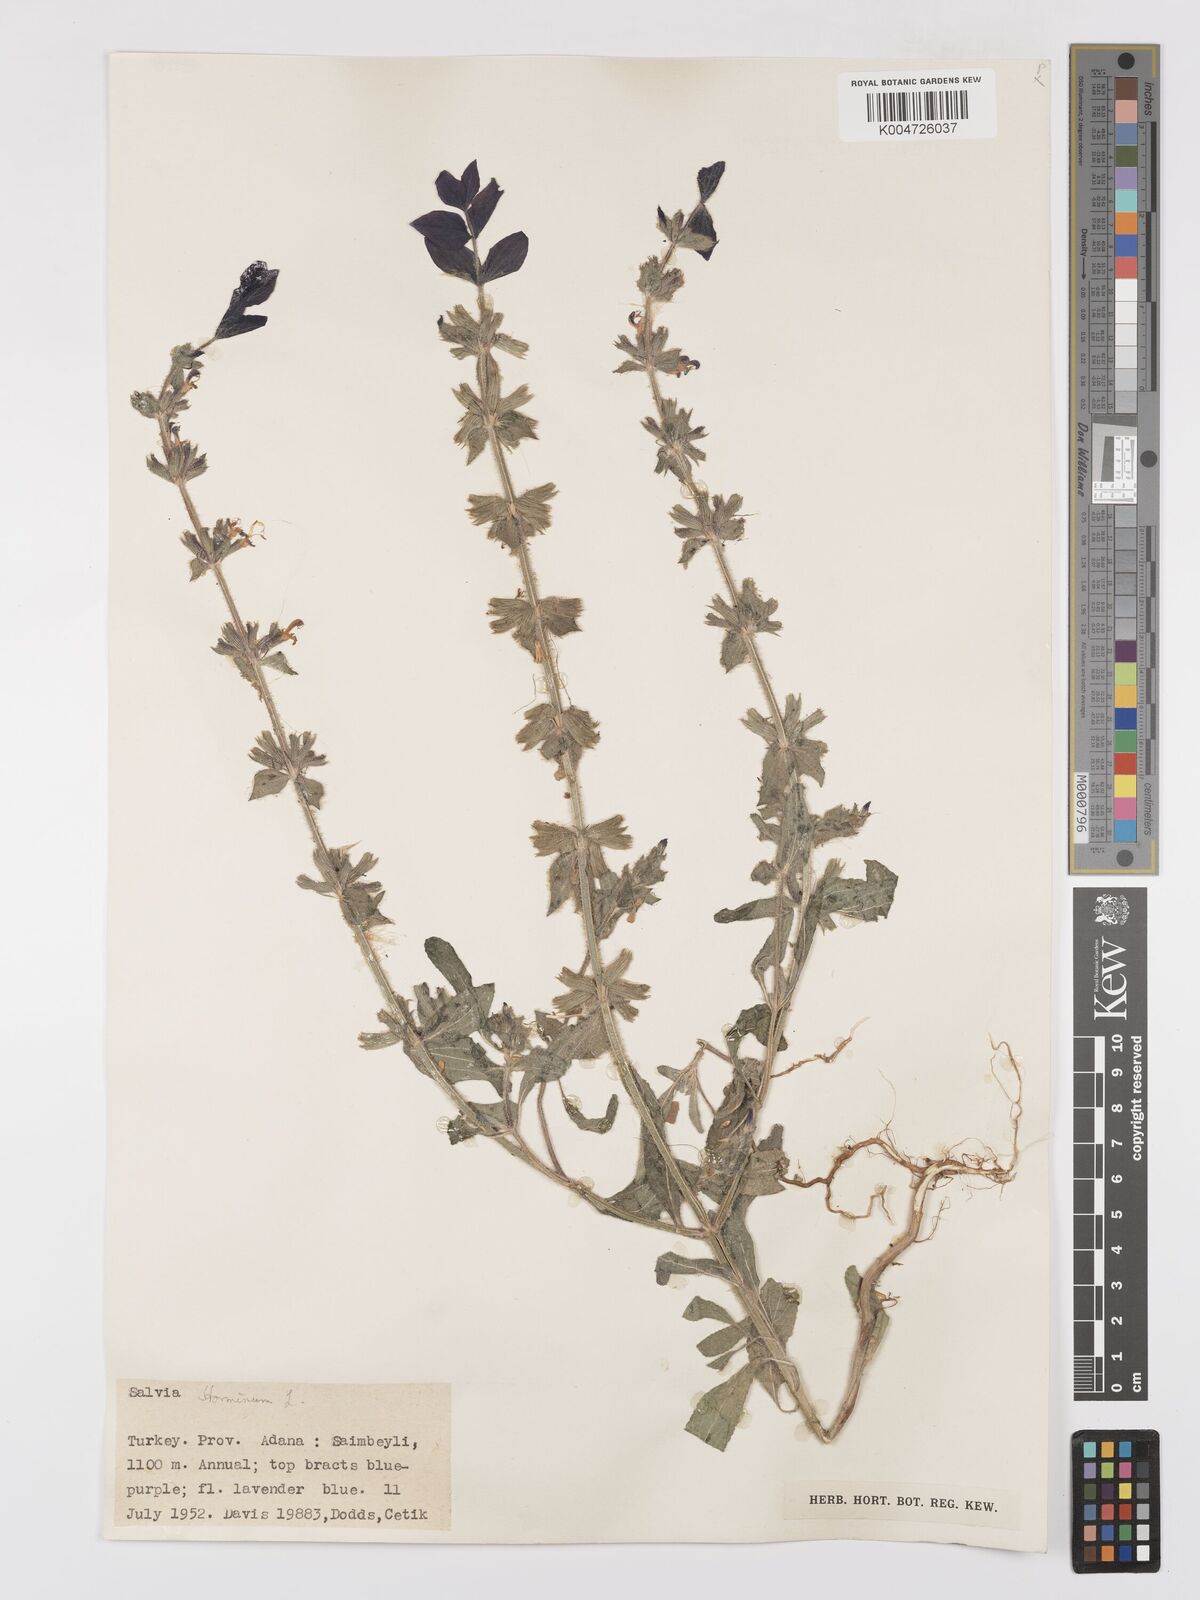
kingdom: Plantae
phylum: Tracheophyta
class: Magnoliopsida
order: Lamiales
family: Lamiaceae
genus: Salvia
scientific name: Salvia viridis
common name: Annual clary
